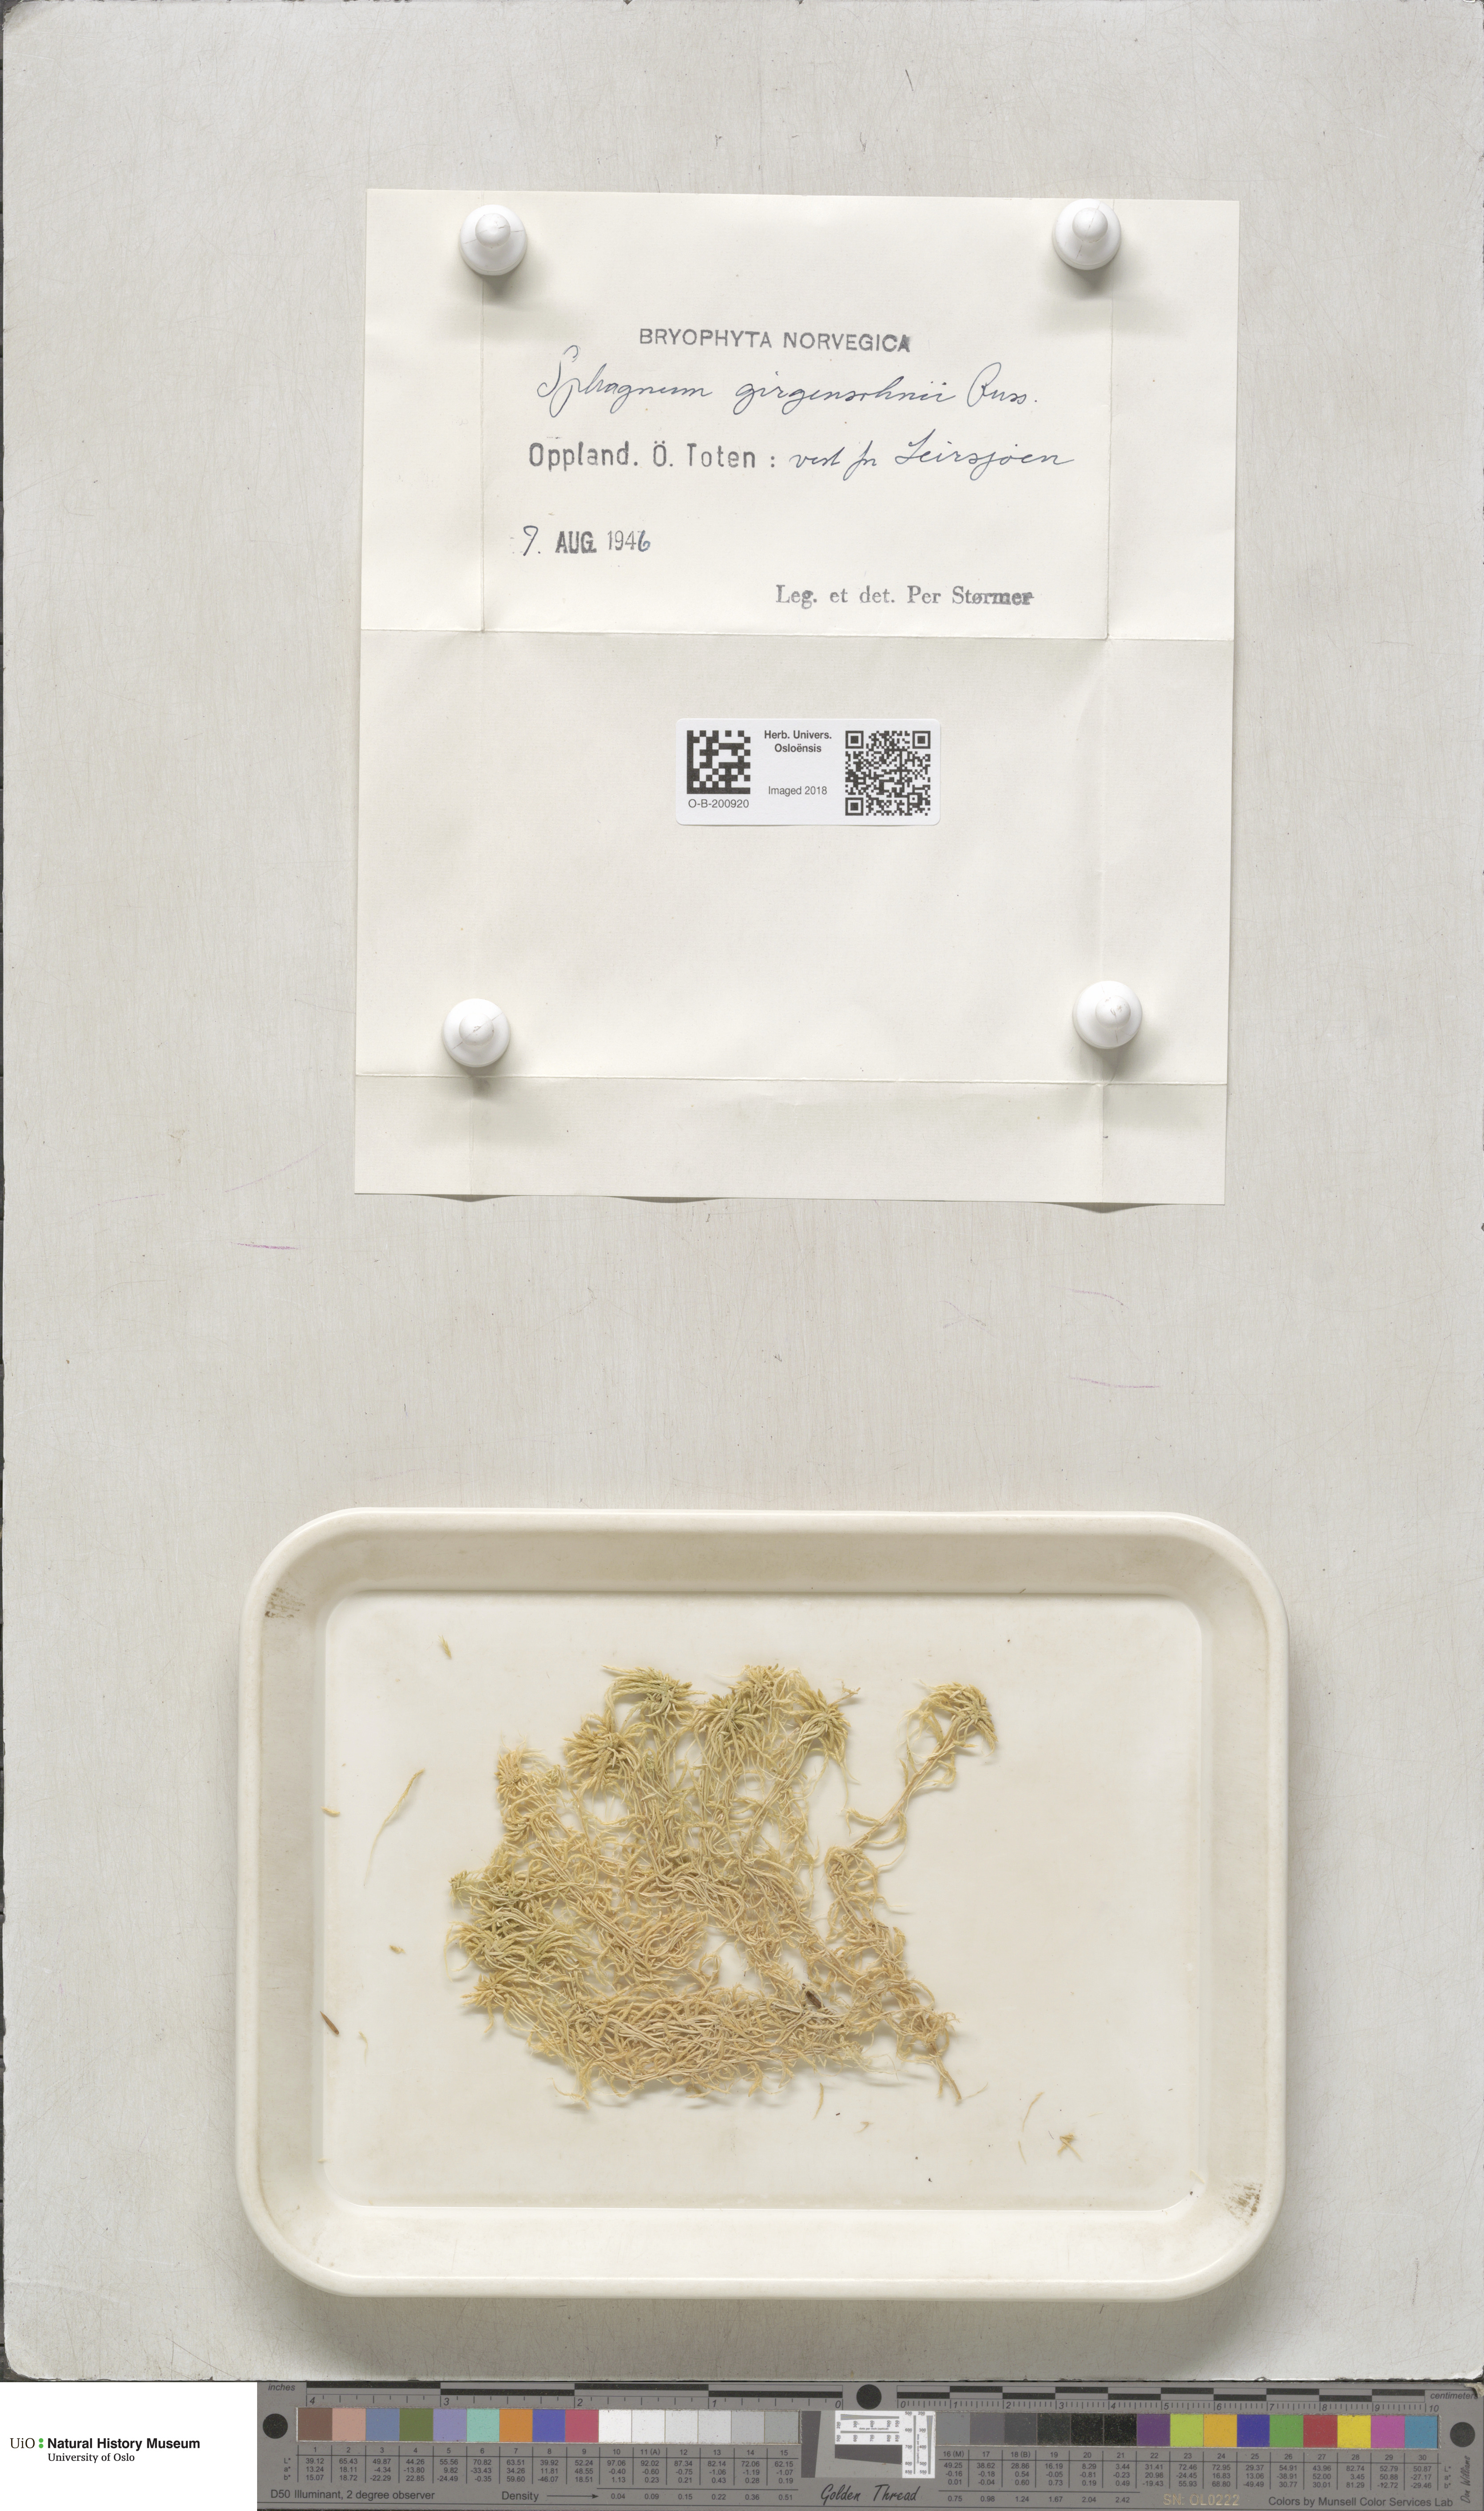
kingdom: Plantae
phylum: Bryophyta
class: Sphagnopsida
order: Sphagnales
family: Sphagnaceae
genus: Sphagnum
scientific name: Sphagnum girgensohnii
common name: Girgensohn's peat moss
